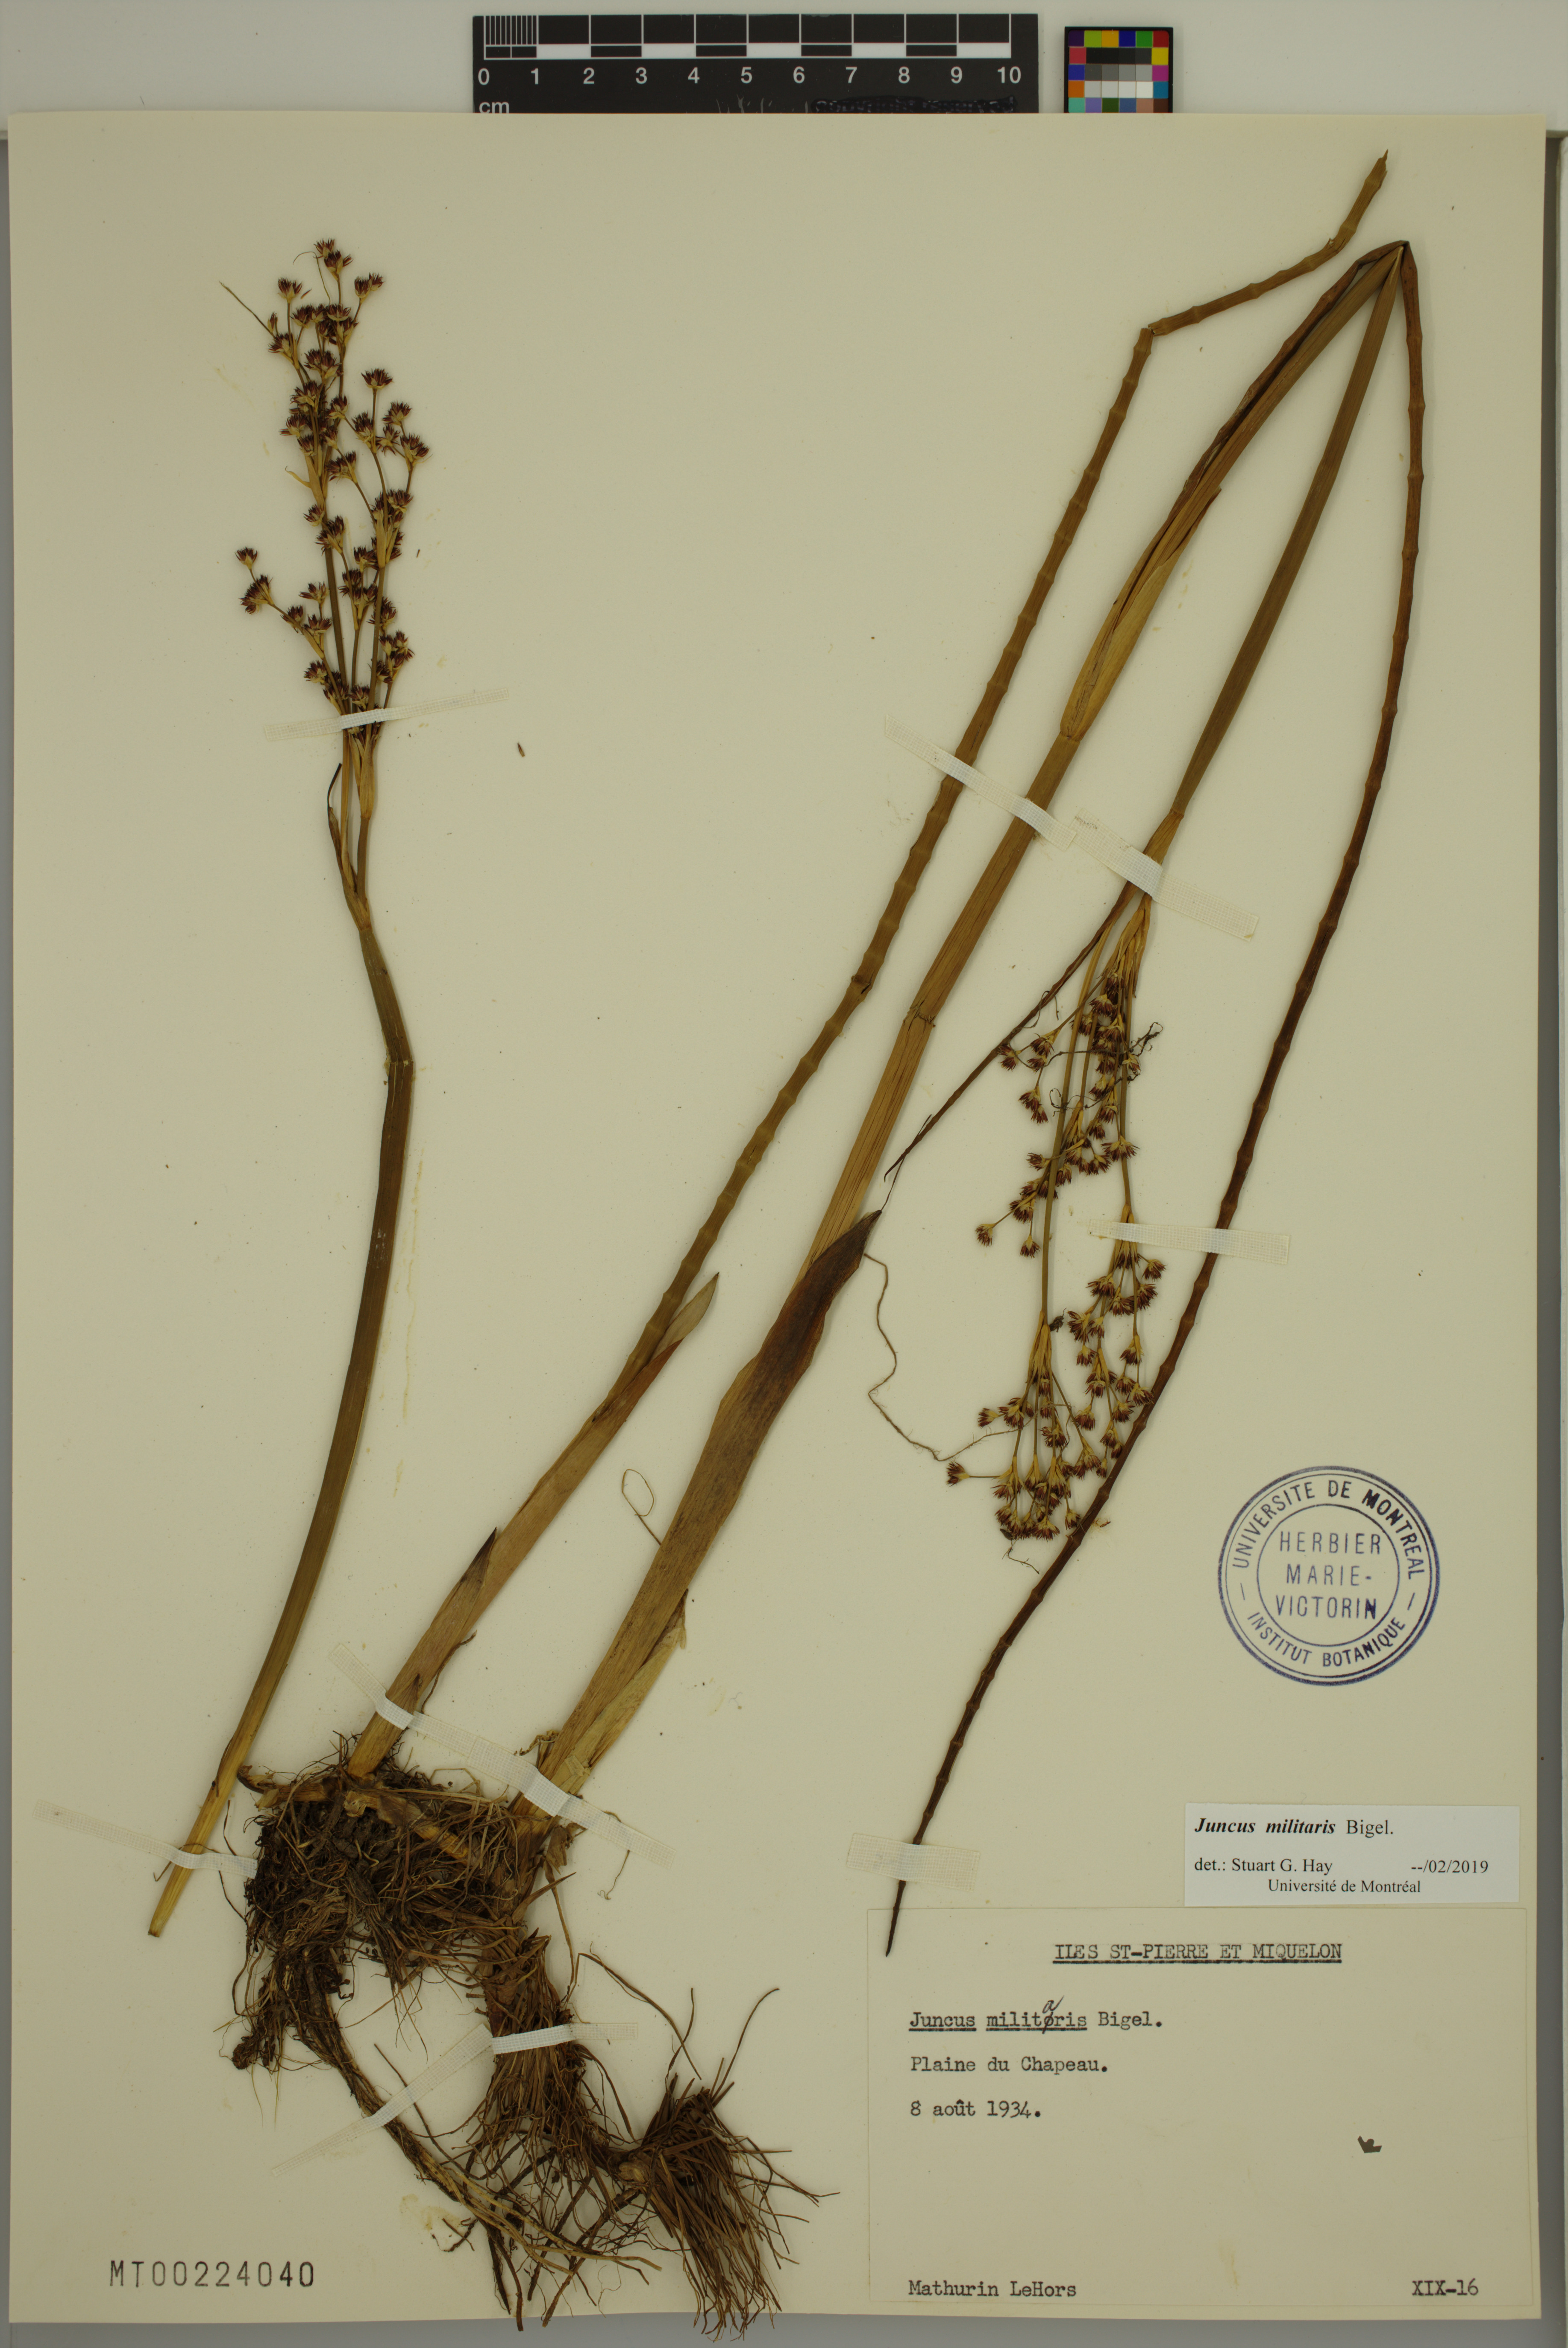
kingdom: Plantae
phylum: Tracheophyta
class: Liliopsida
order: Poales
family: Juncaceae
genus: Juncus
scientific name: Juncus militaris
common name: Bayonet rush
